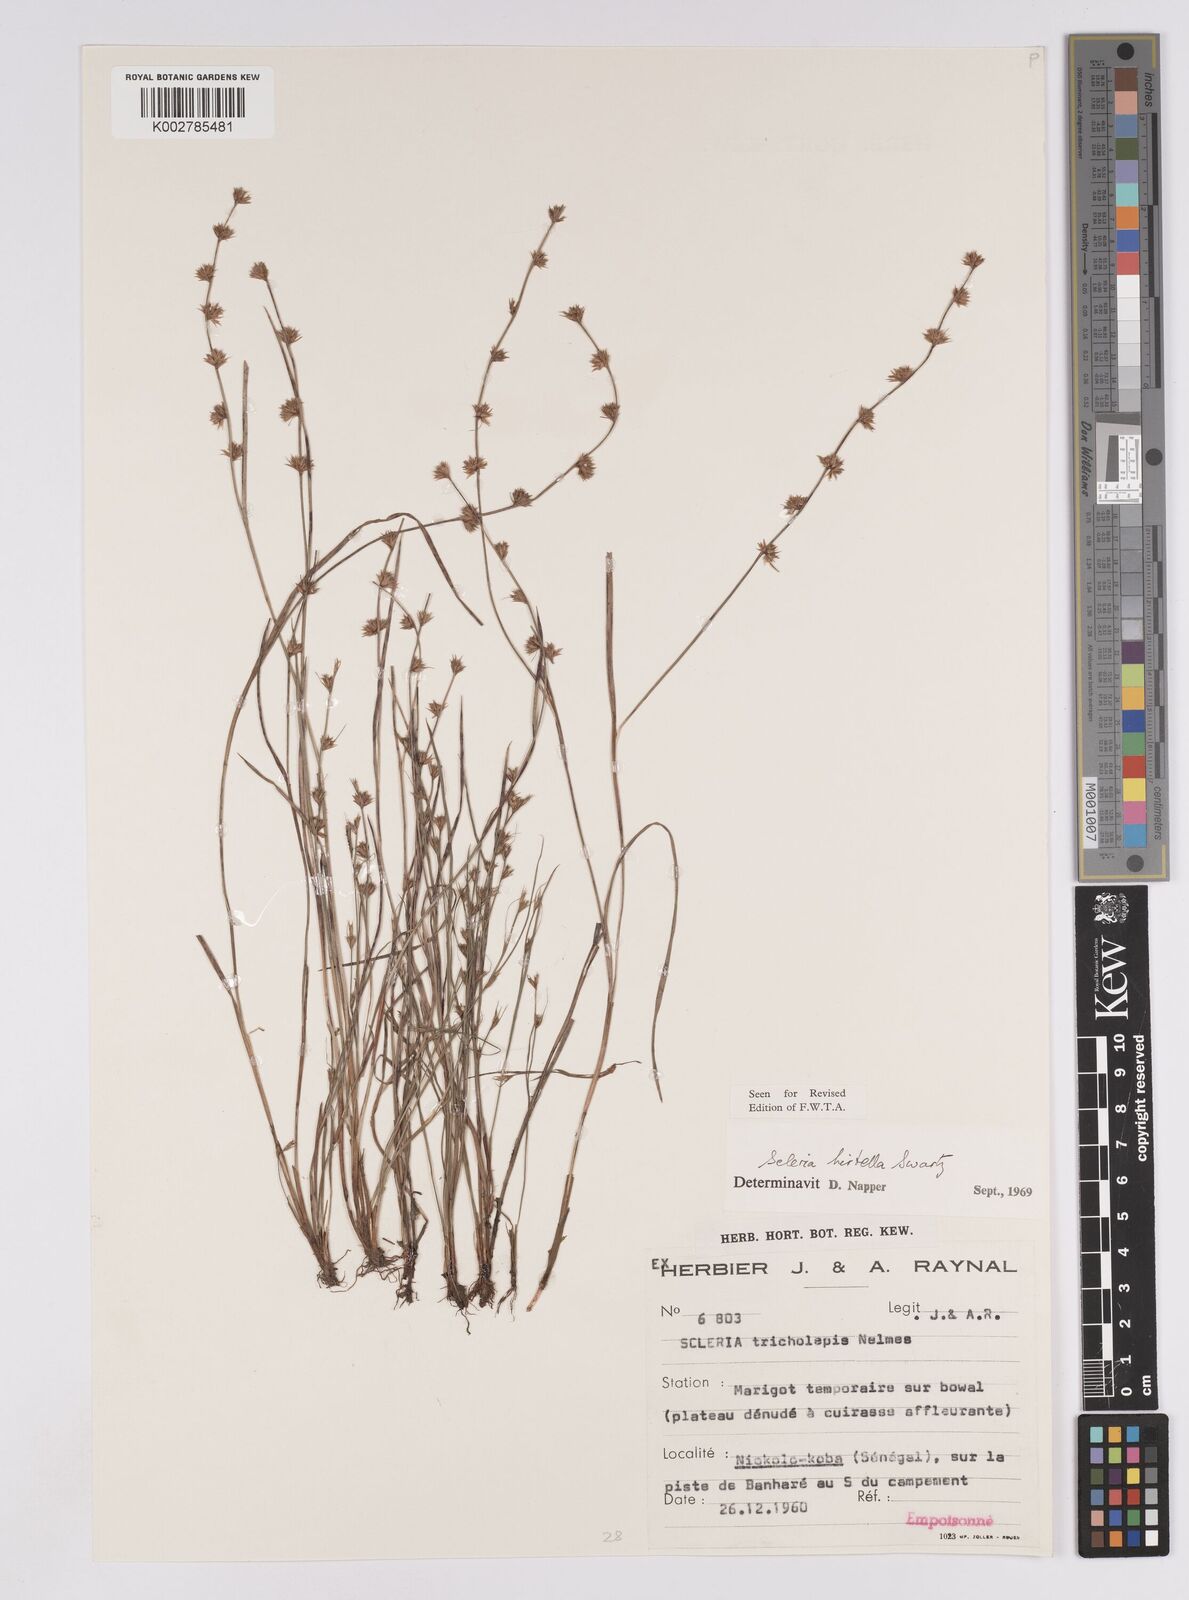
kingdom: Plantae
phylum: Tracheophyta
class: Liliopsida
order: Poales
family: Cyperaceae
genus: Scleria
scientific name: Scleria tricholepis
